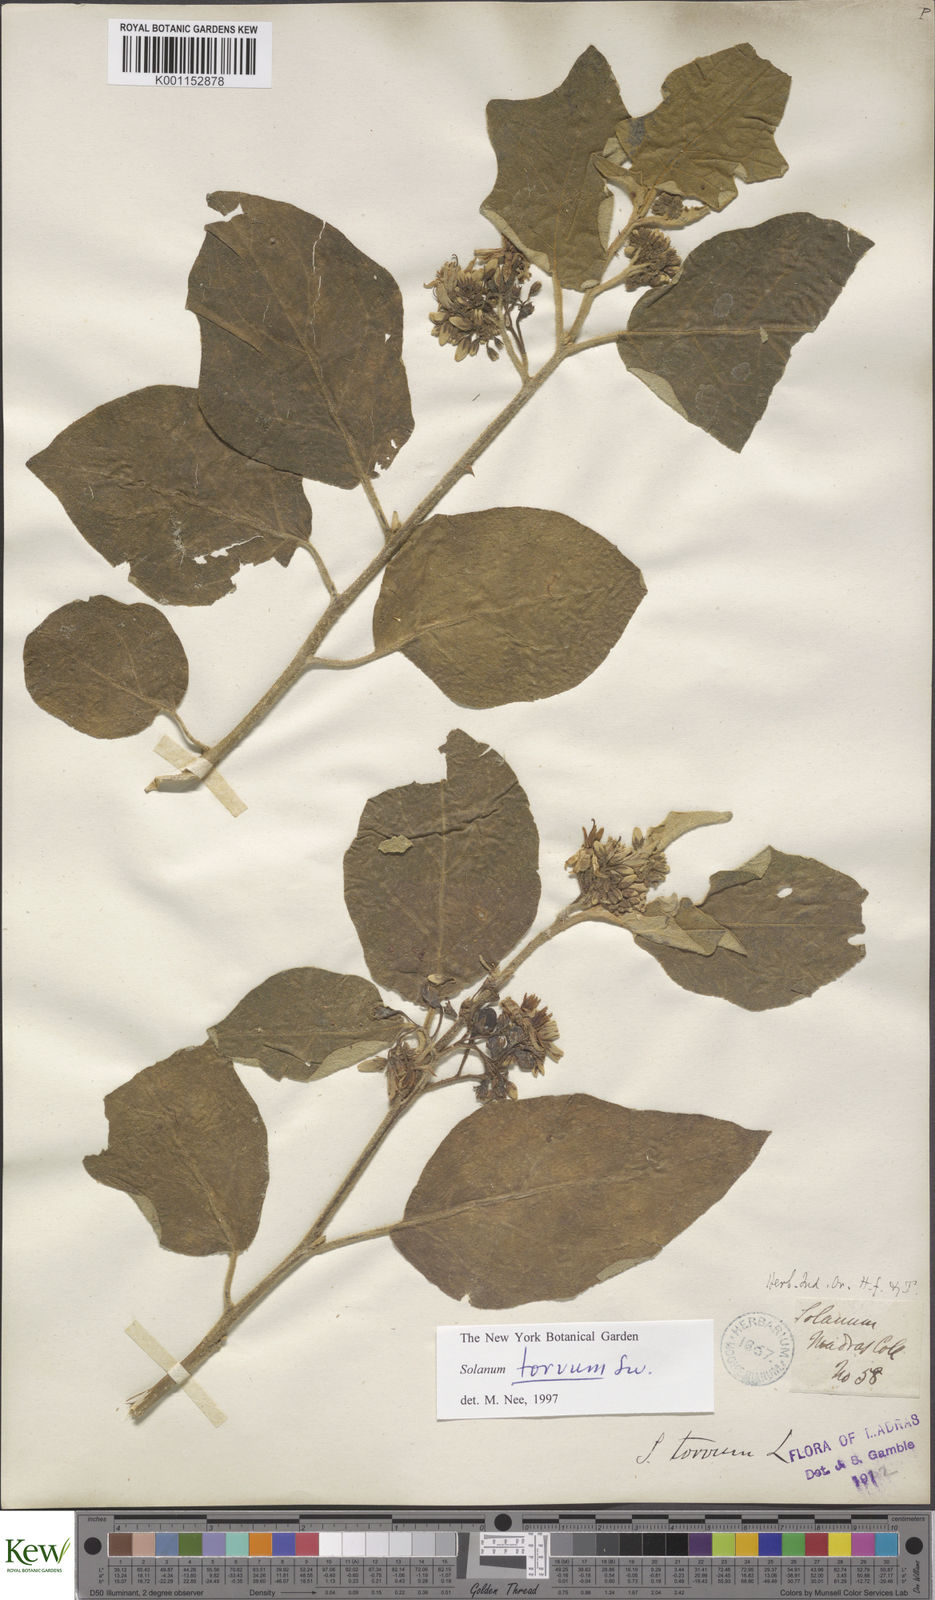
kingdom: Plantae
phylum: Tracheophyta
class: Magnoliopsida
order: Solanales
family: Solanaceae
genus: Solanum
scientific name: Solanum torvum
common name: Turkey berry
